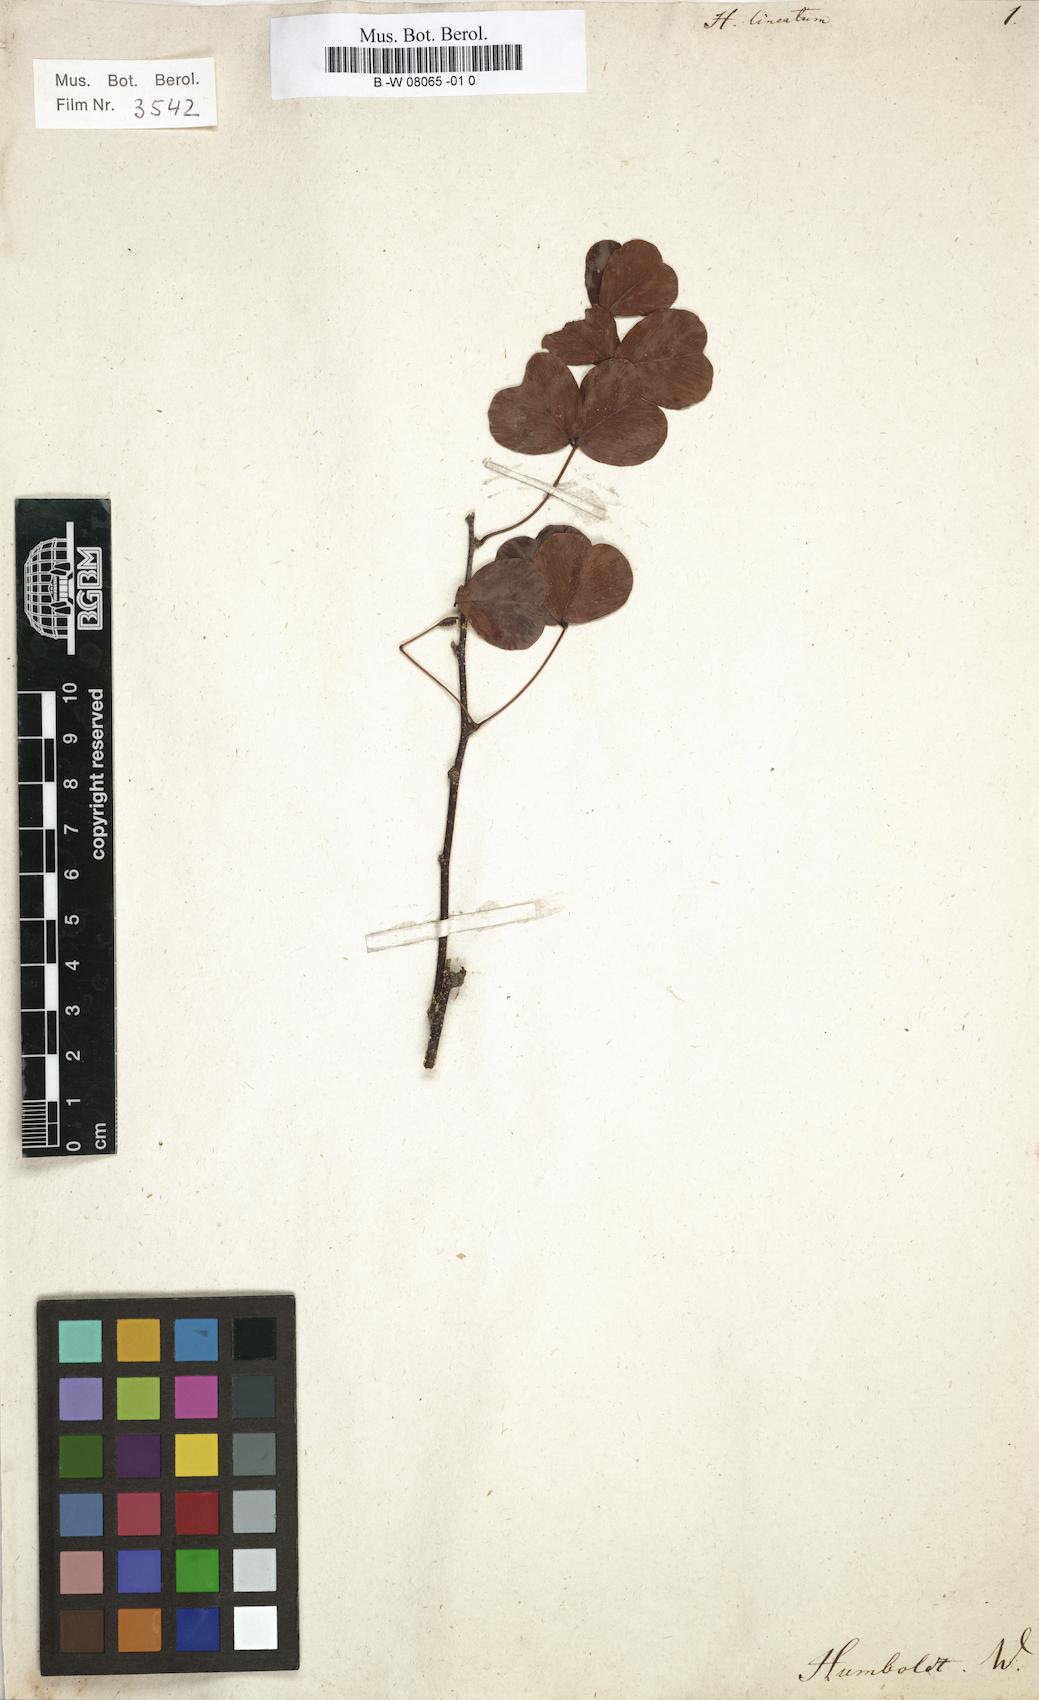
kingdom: Plantae
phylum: Tracheophyta
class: Magnoliopsida
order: Fabales
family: Fabaceae
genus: Haematoxylum
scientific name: Haematoxylum
